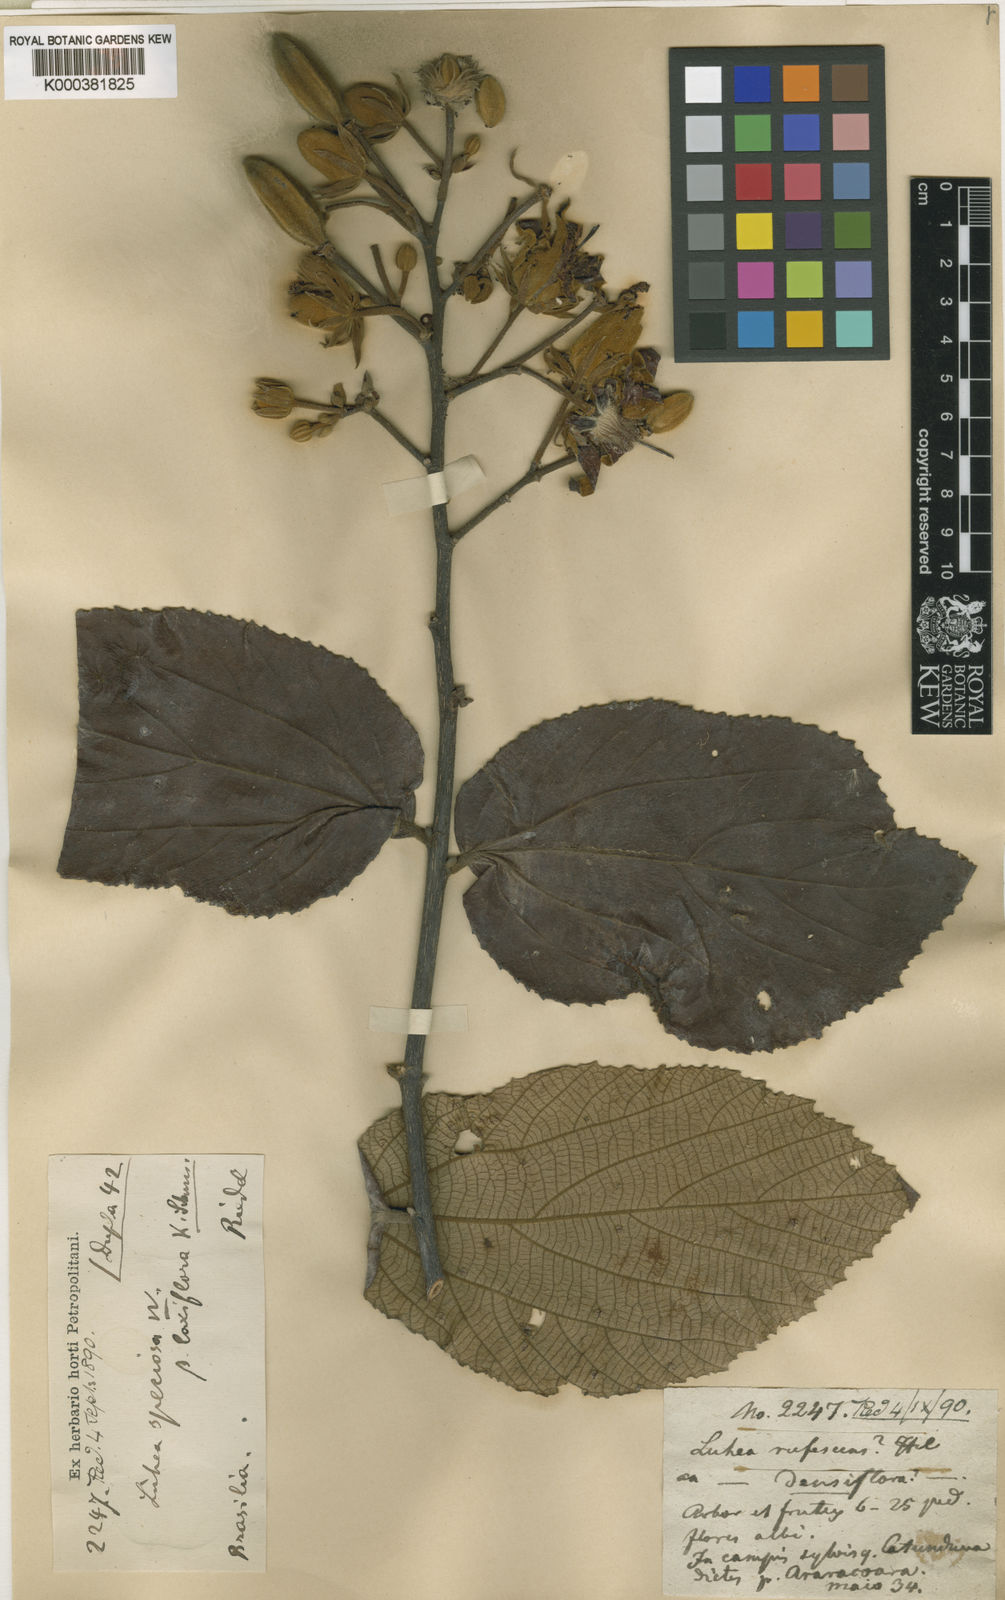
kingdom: Plantae
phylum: Tracheophyta
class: Magnoliopsida
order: Malvales
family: Malvaceae
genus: Luehea
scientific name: Luehea grandiflora
